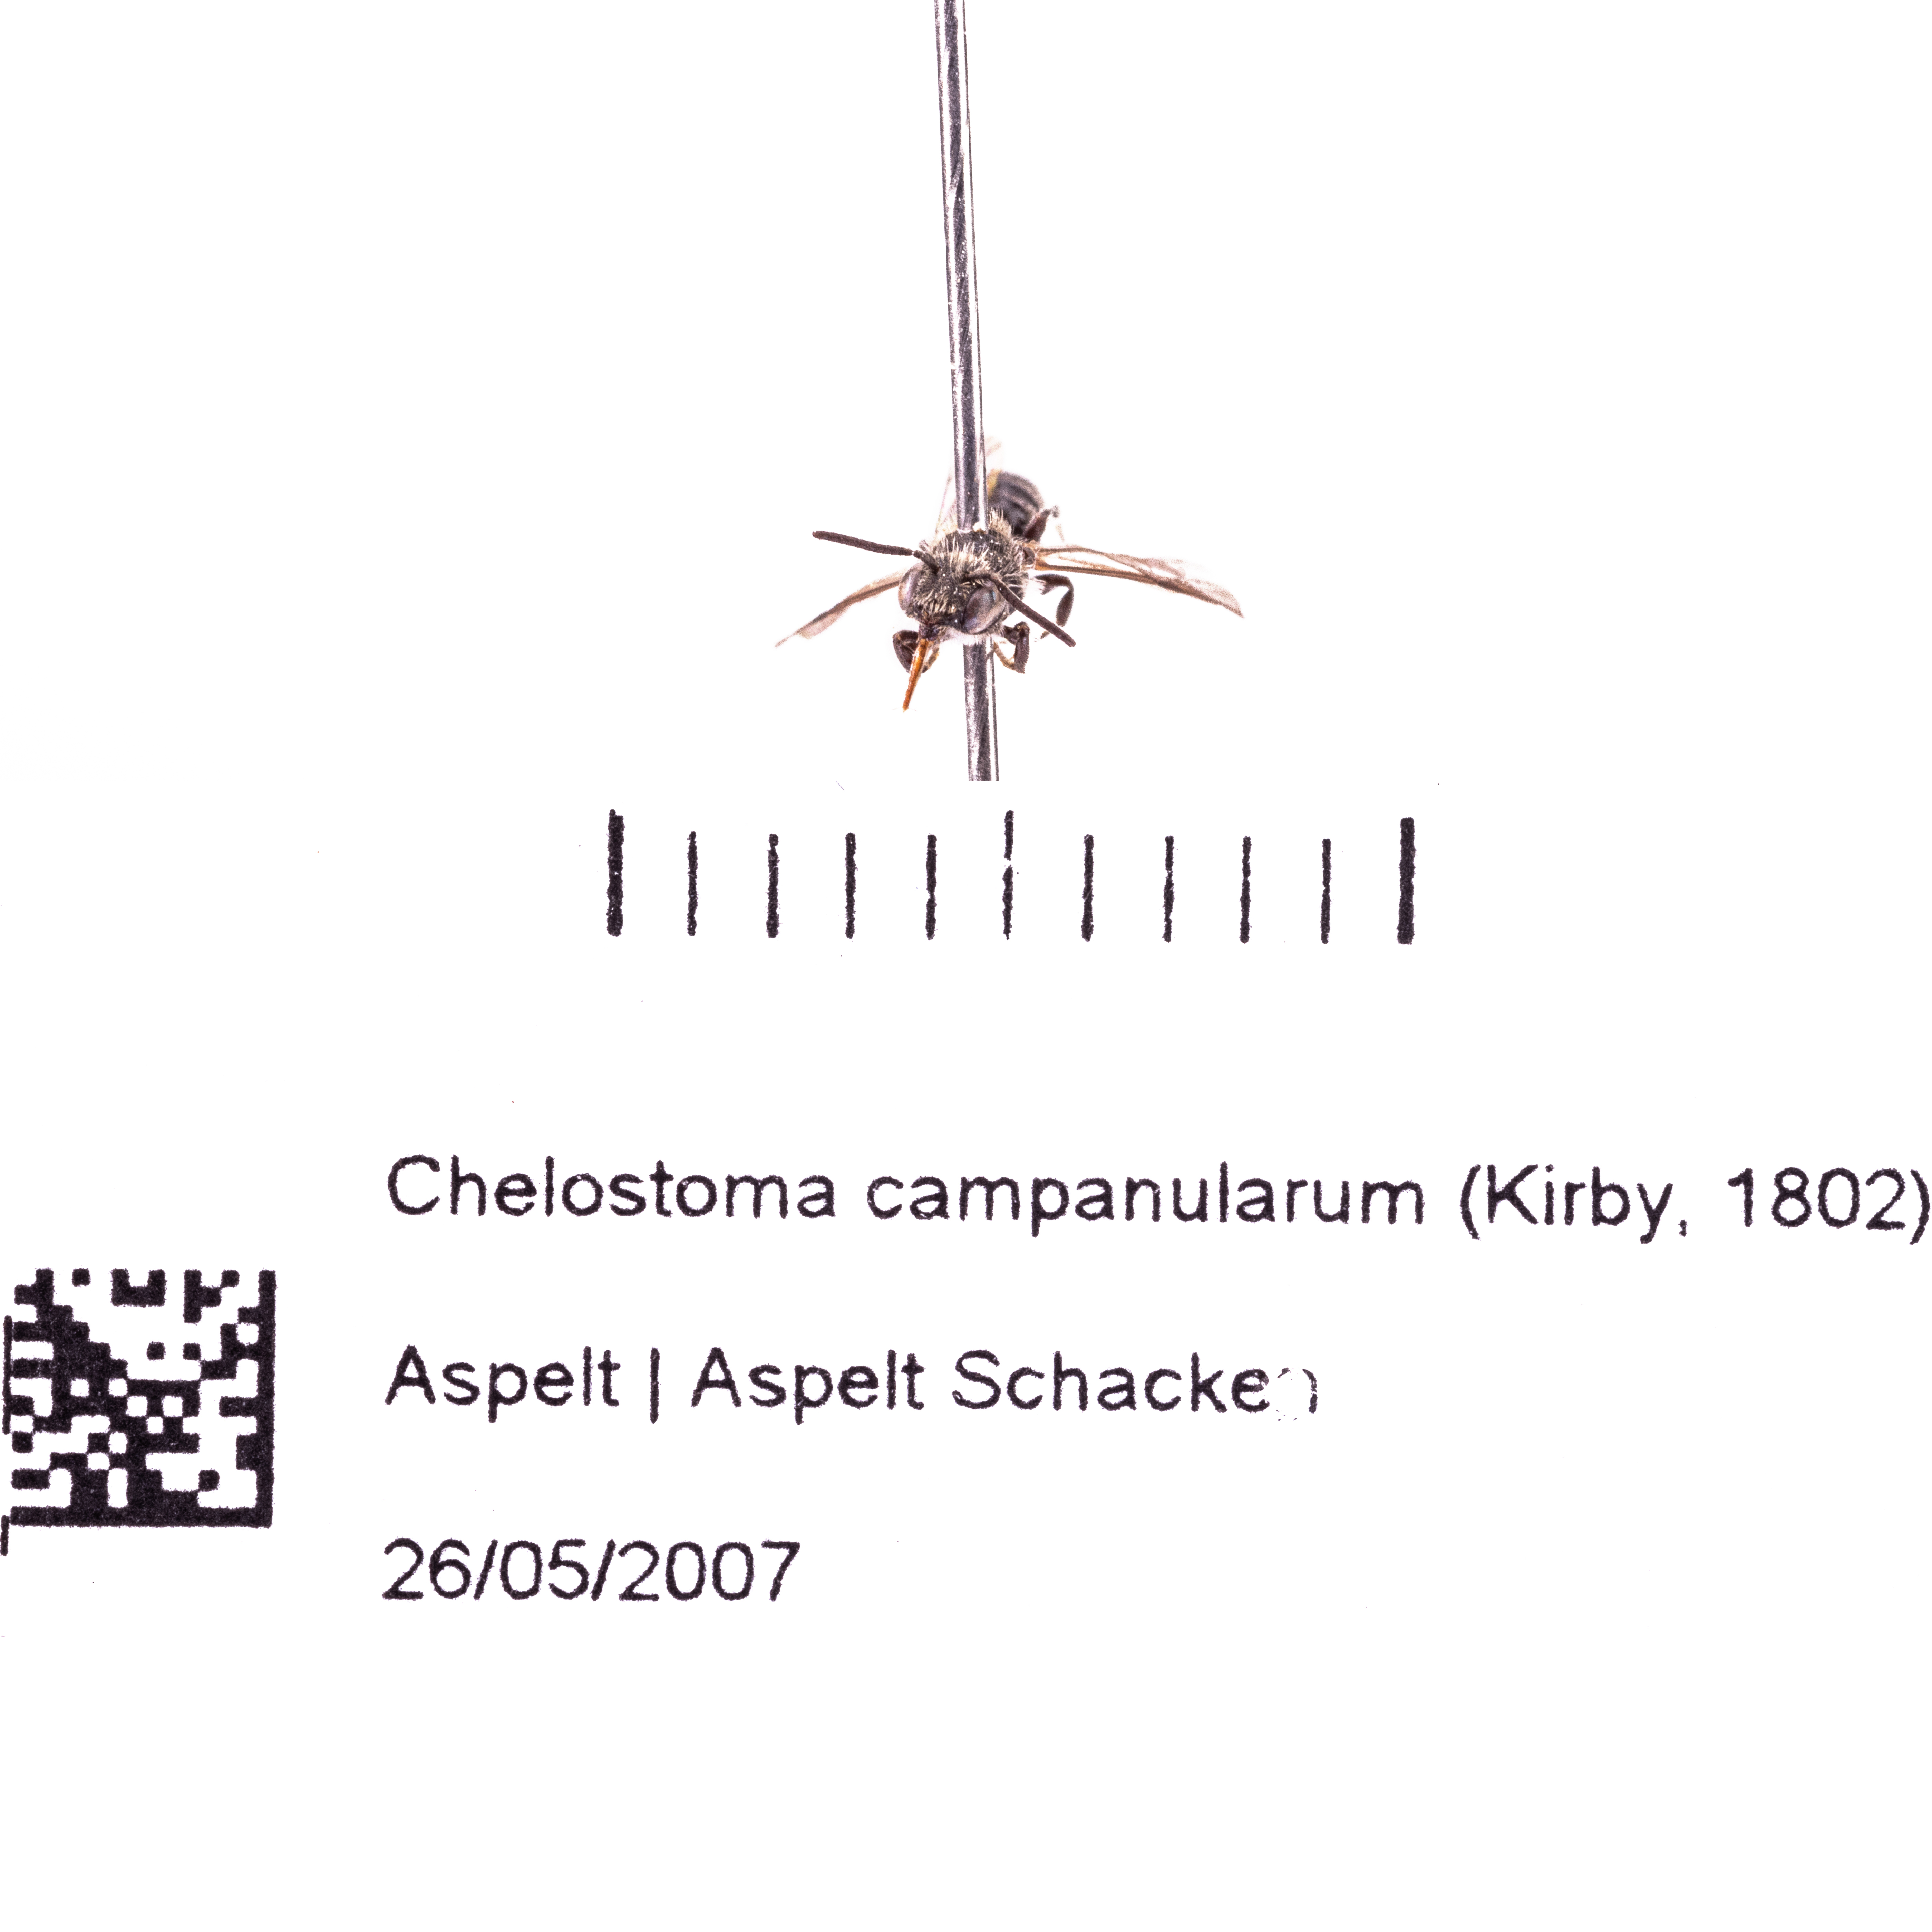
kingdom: Animalia
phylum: Arthropoda
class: Insecta
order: Hymenoptera
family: Megachilidae
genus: Chelostoma
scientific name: Chelostoma campanularum
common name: Small scissor bee
